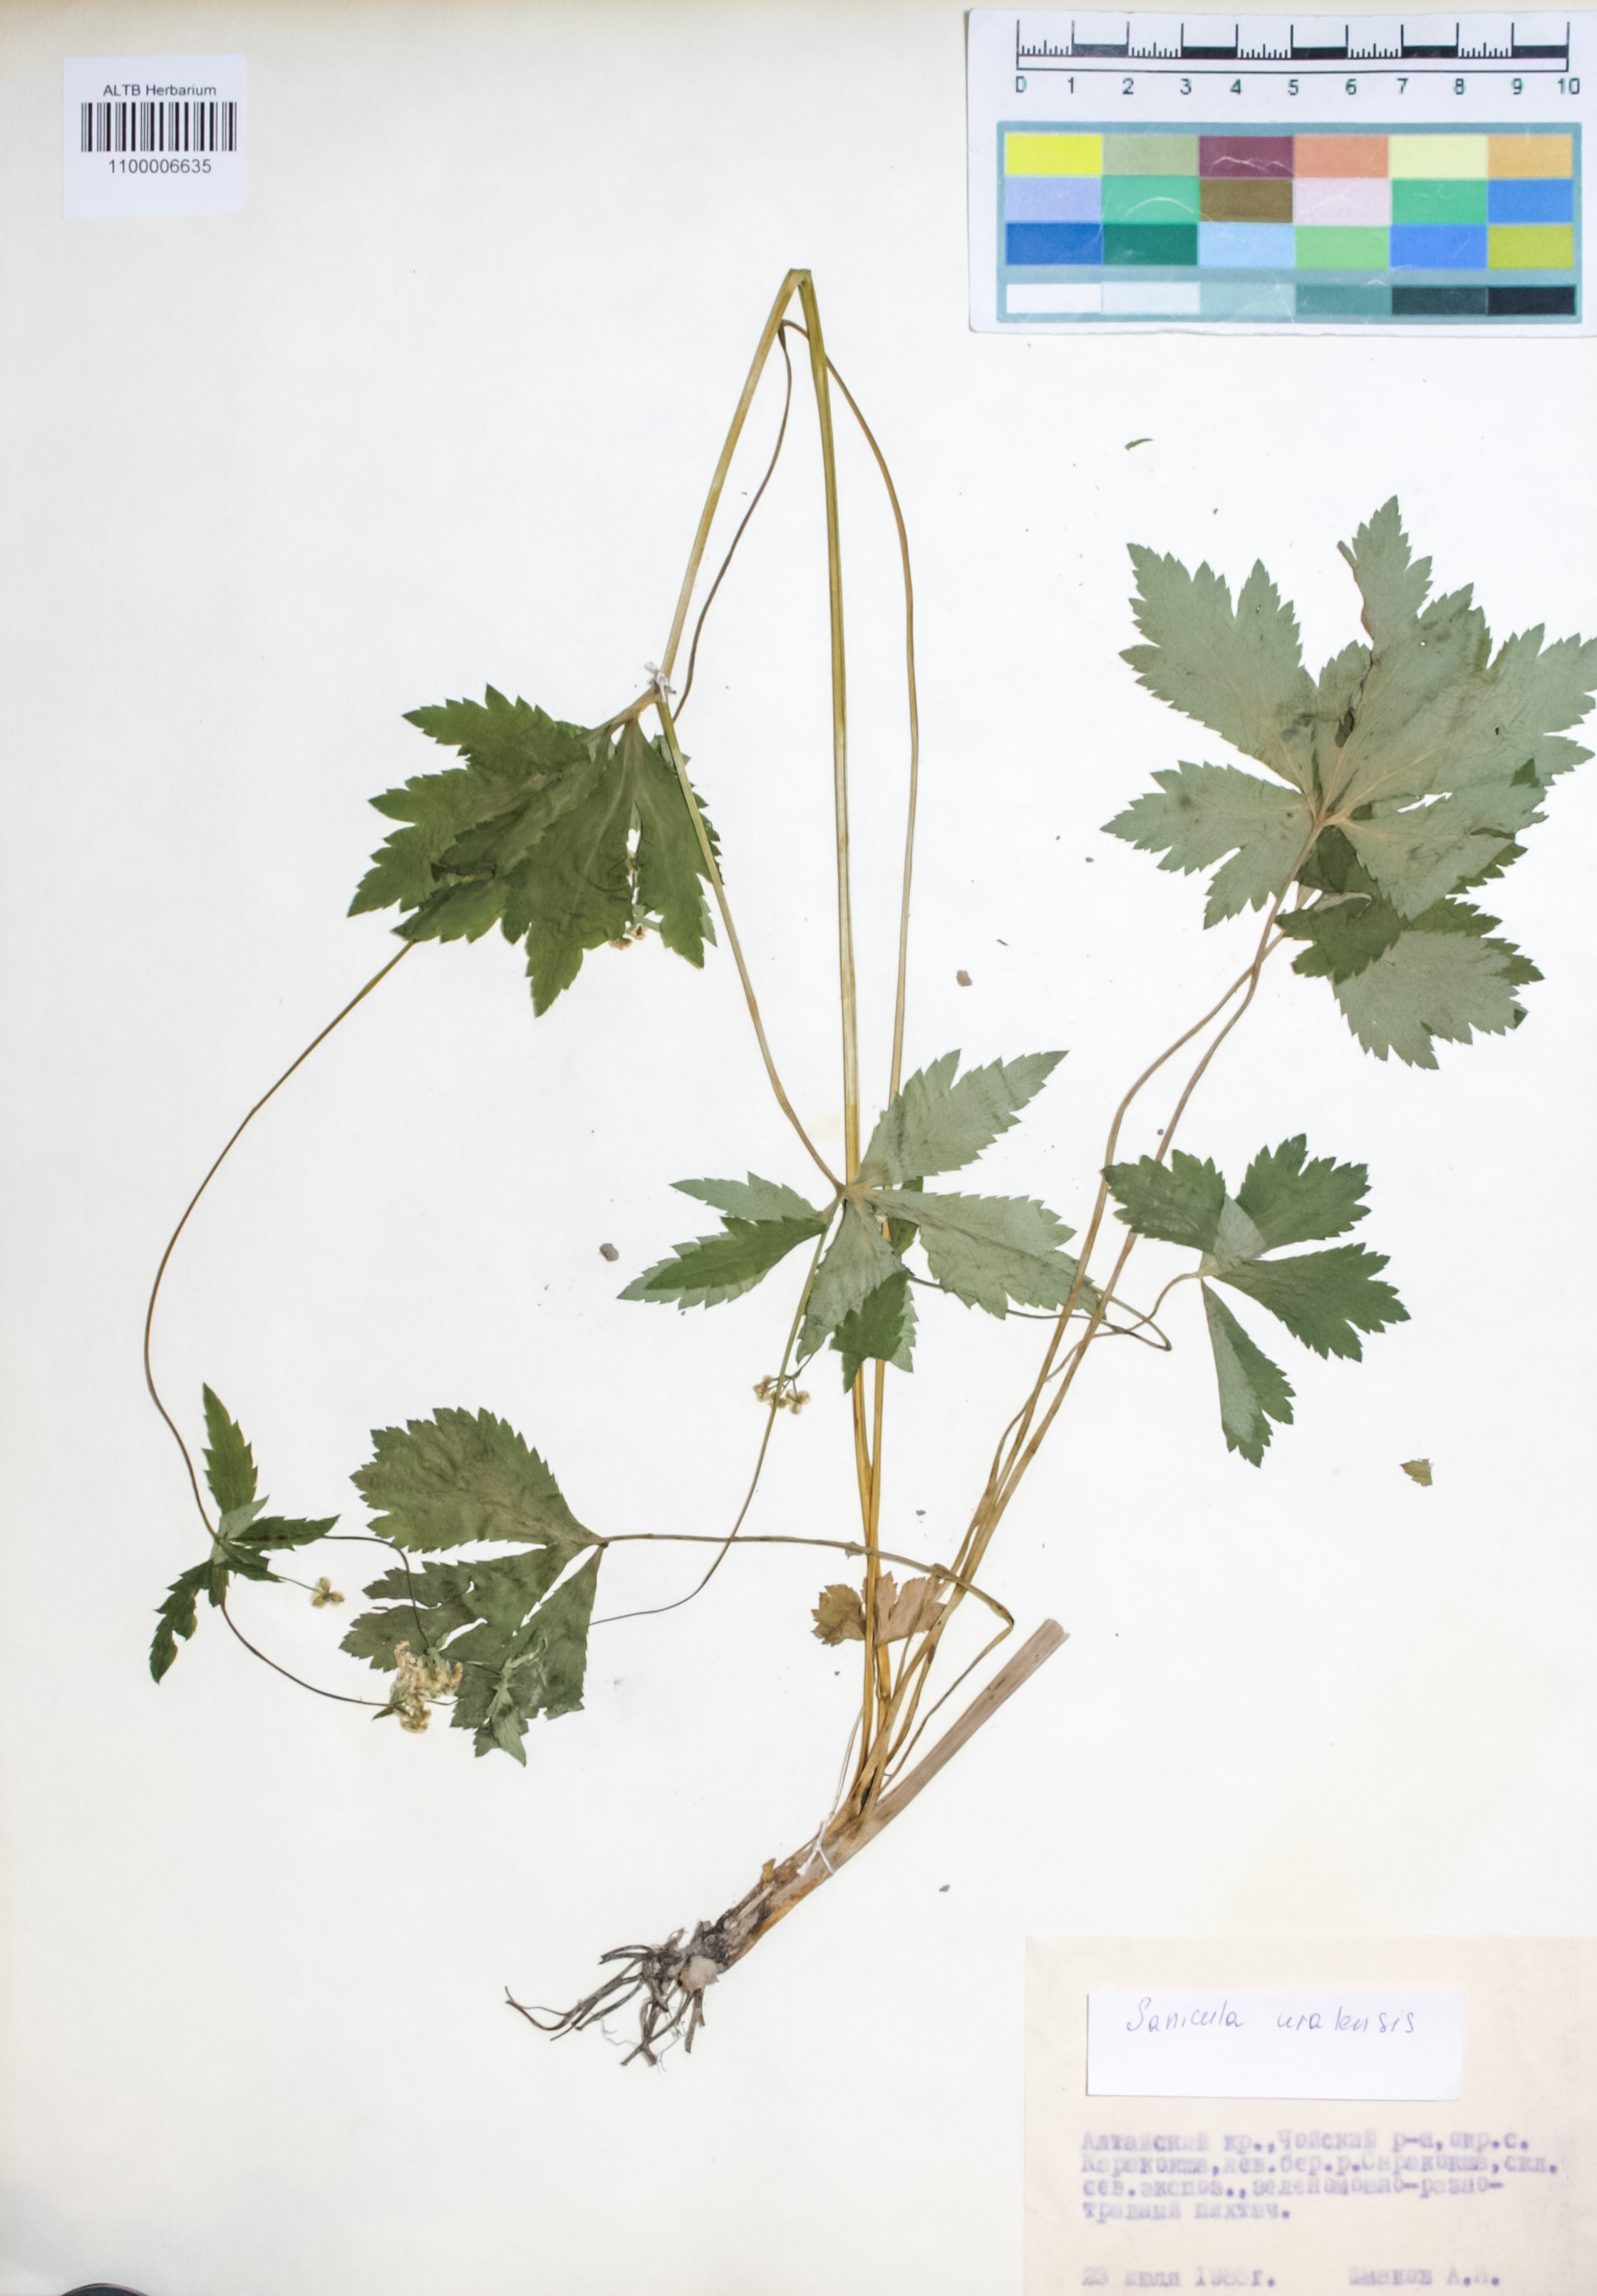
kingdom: Plantae
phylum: Tracheophyta
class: Magnoliopsida
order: Apiales
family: Apiaceae
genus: Sanicula
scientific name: Sanicula giraldii
